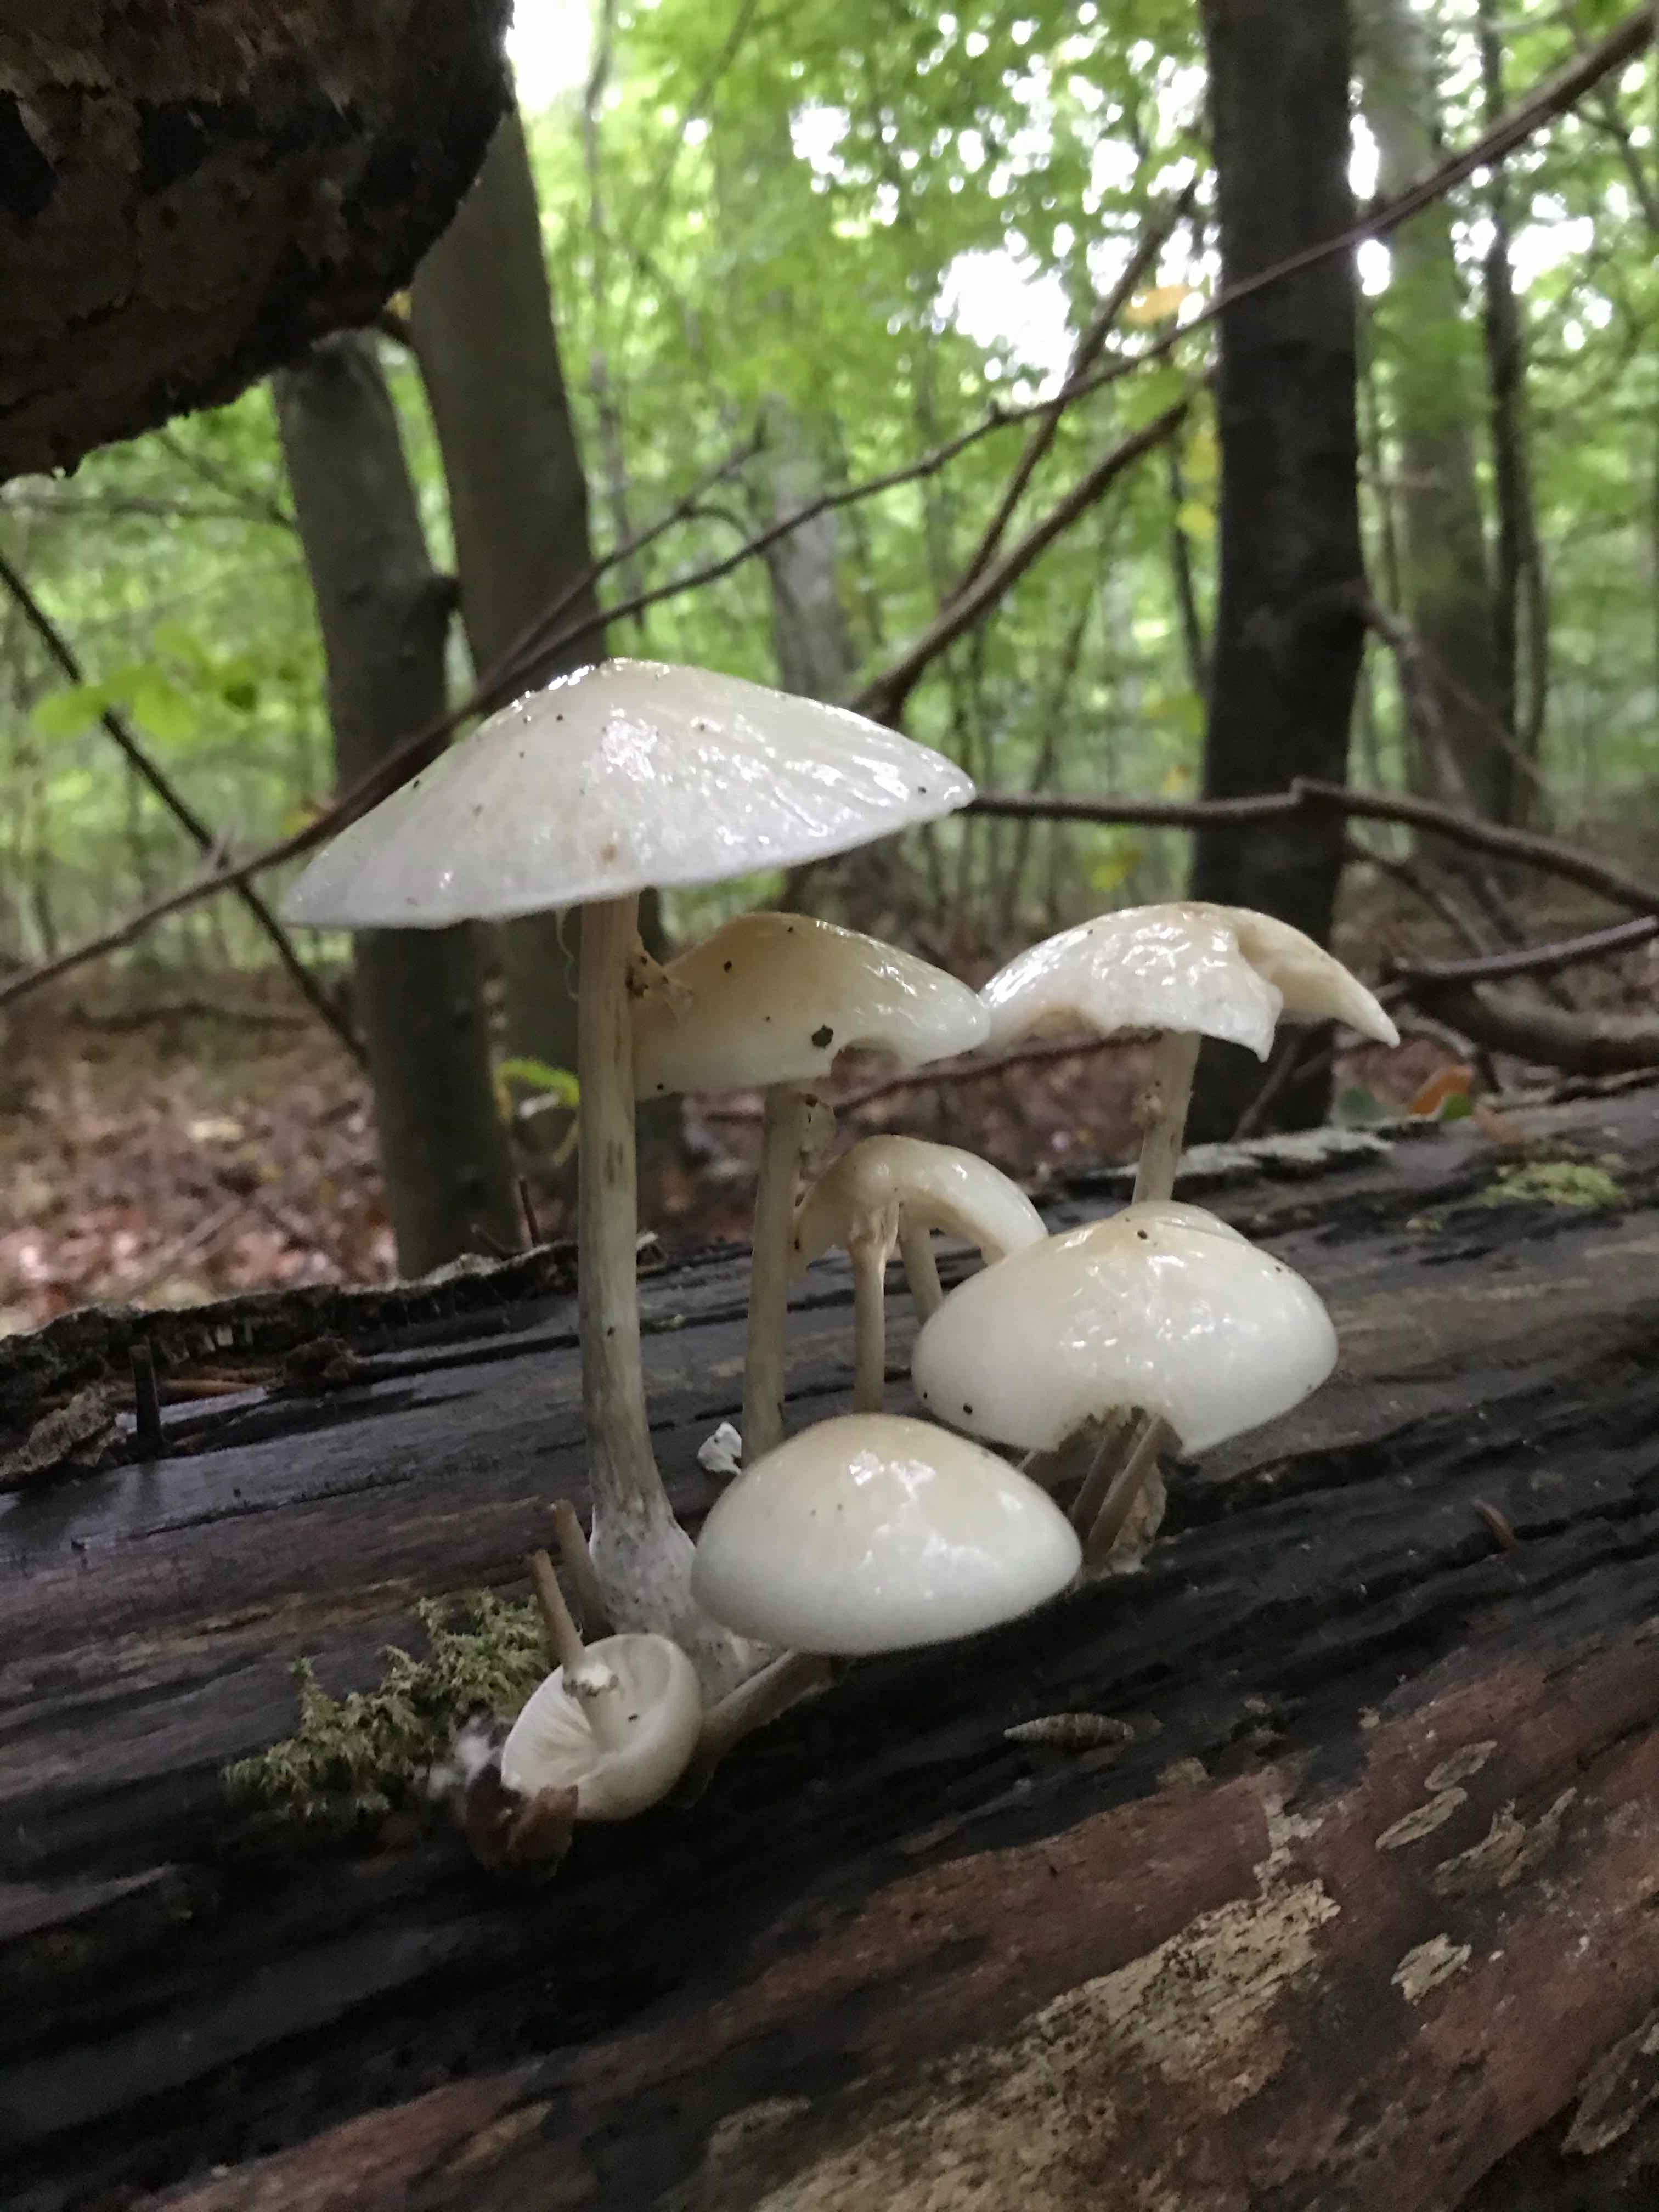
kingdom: Fungi
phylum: Basidiomycota
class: Agaricomycetes
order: Agaricales
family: Physalacriaceae
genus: Mucidula
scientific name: Mucidula mucida
